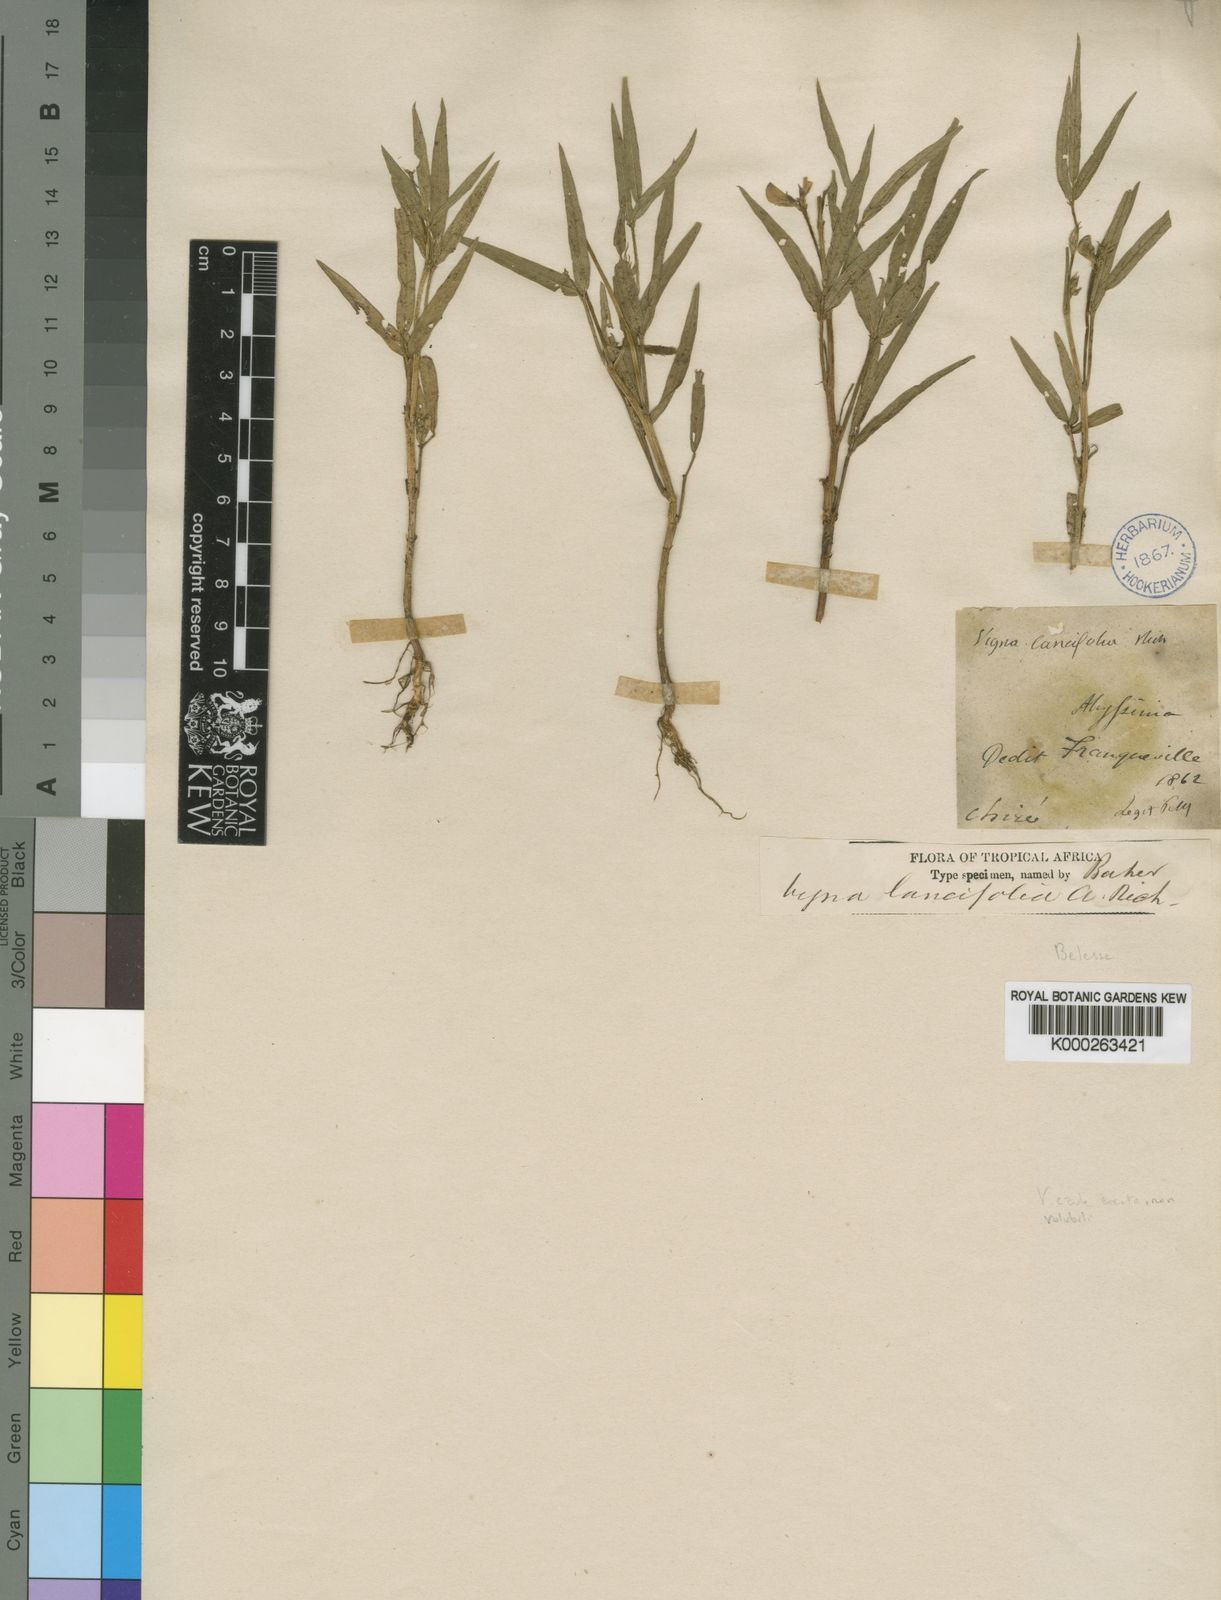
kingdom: Plantae
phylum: Tracheophyta
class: Magnoliopsida
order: Fabales
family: Fabaceae
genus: Vigna
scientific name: Vigna oblongifolia
